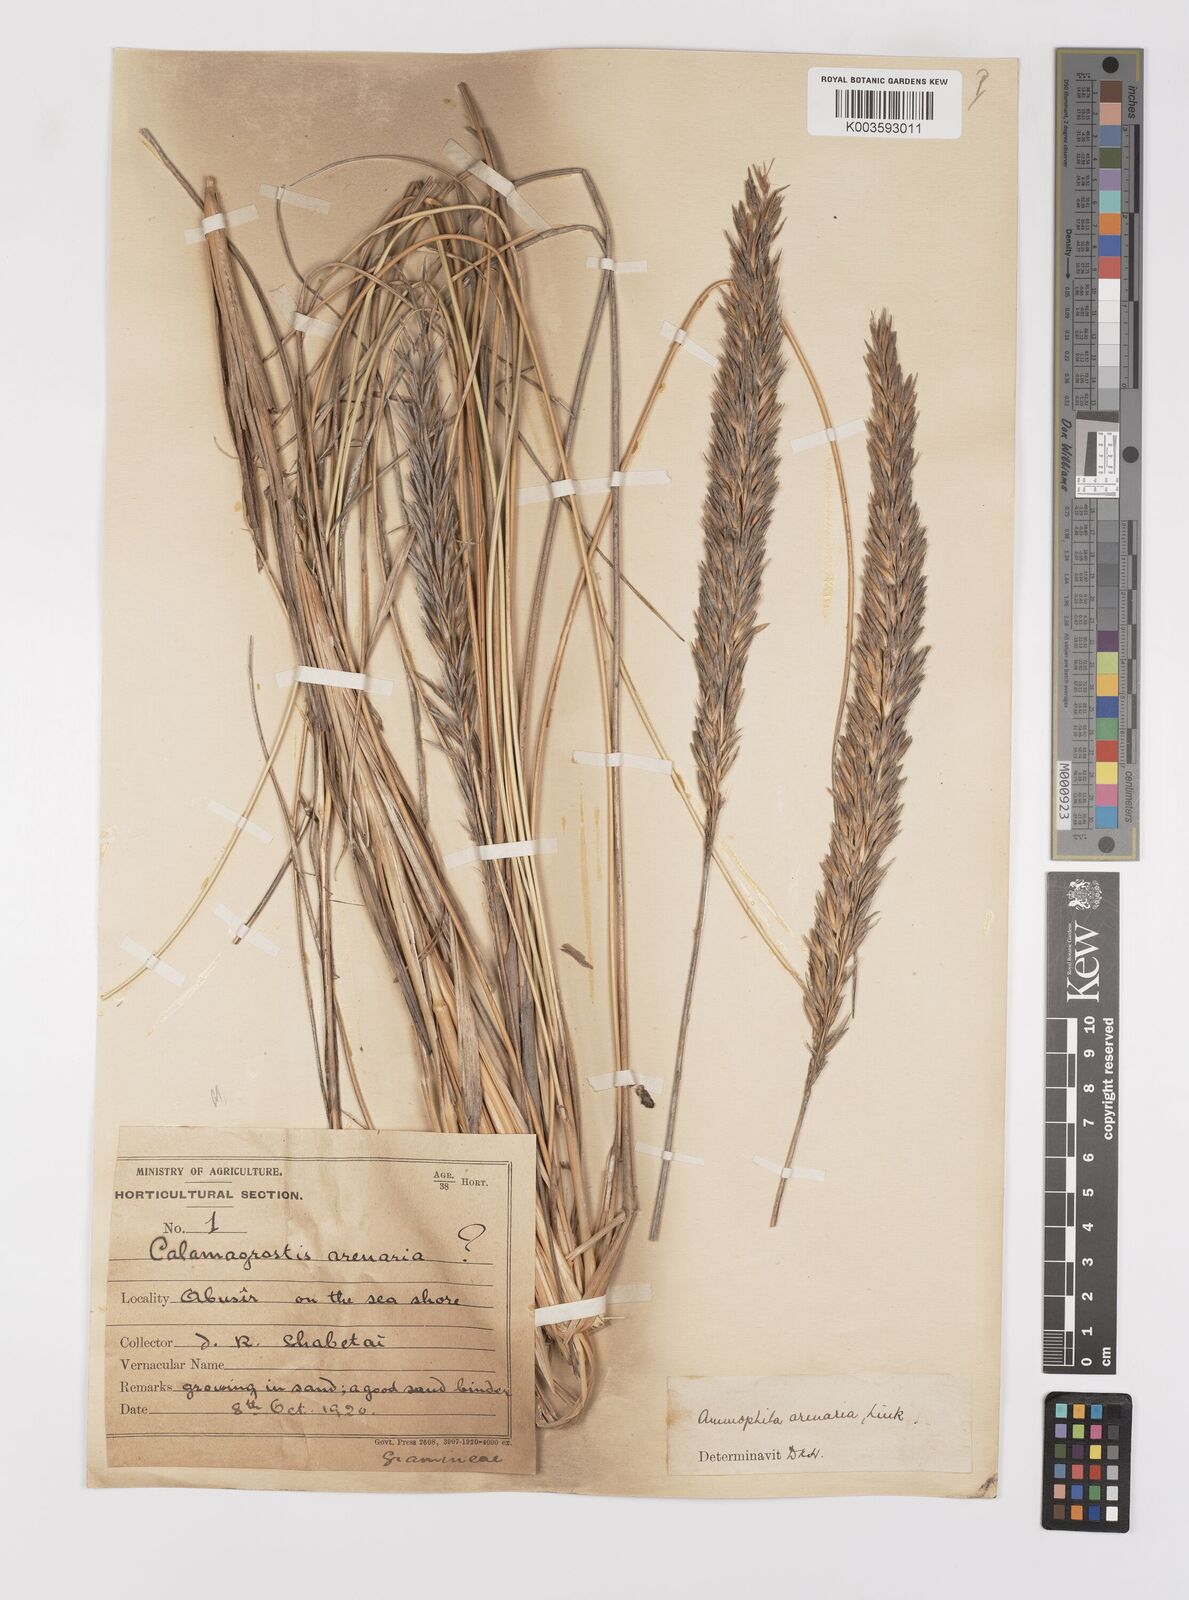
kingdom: Plantae
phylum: Tracheophyta
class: Liliopsida
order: Poales
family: Poaceae
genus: Calamagrostis
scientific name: Calamagrostis arenaria
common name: European beachgrass
